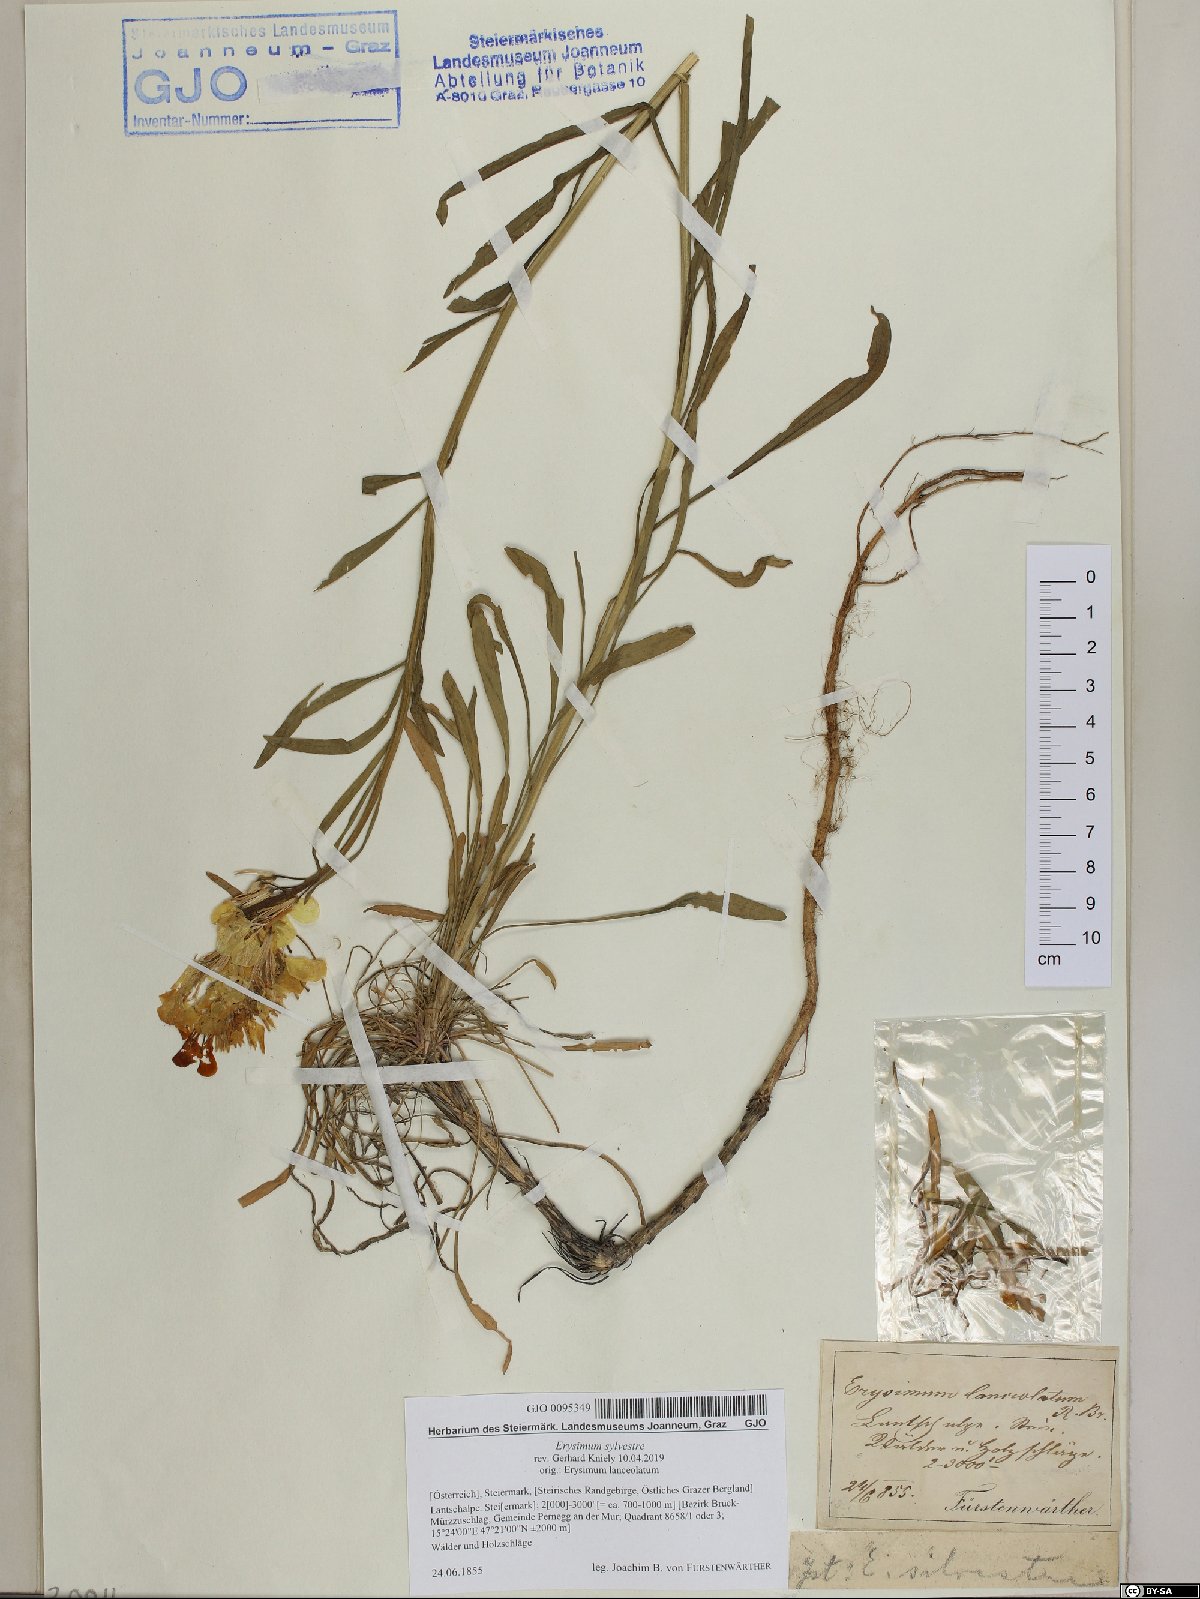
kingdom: Plantae
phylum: Tracheophyta
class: Magnoliopsida
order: Brassicales
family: Brassicaceae
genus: Erysimum
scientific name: Erysimum sylvestre
